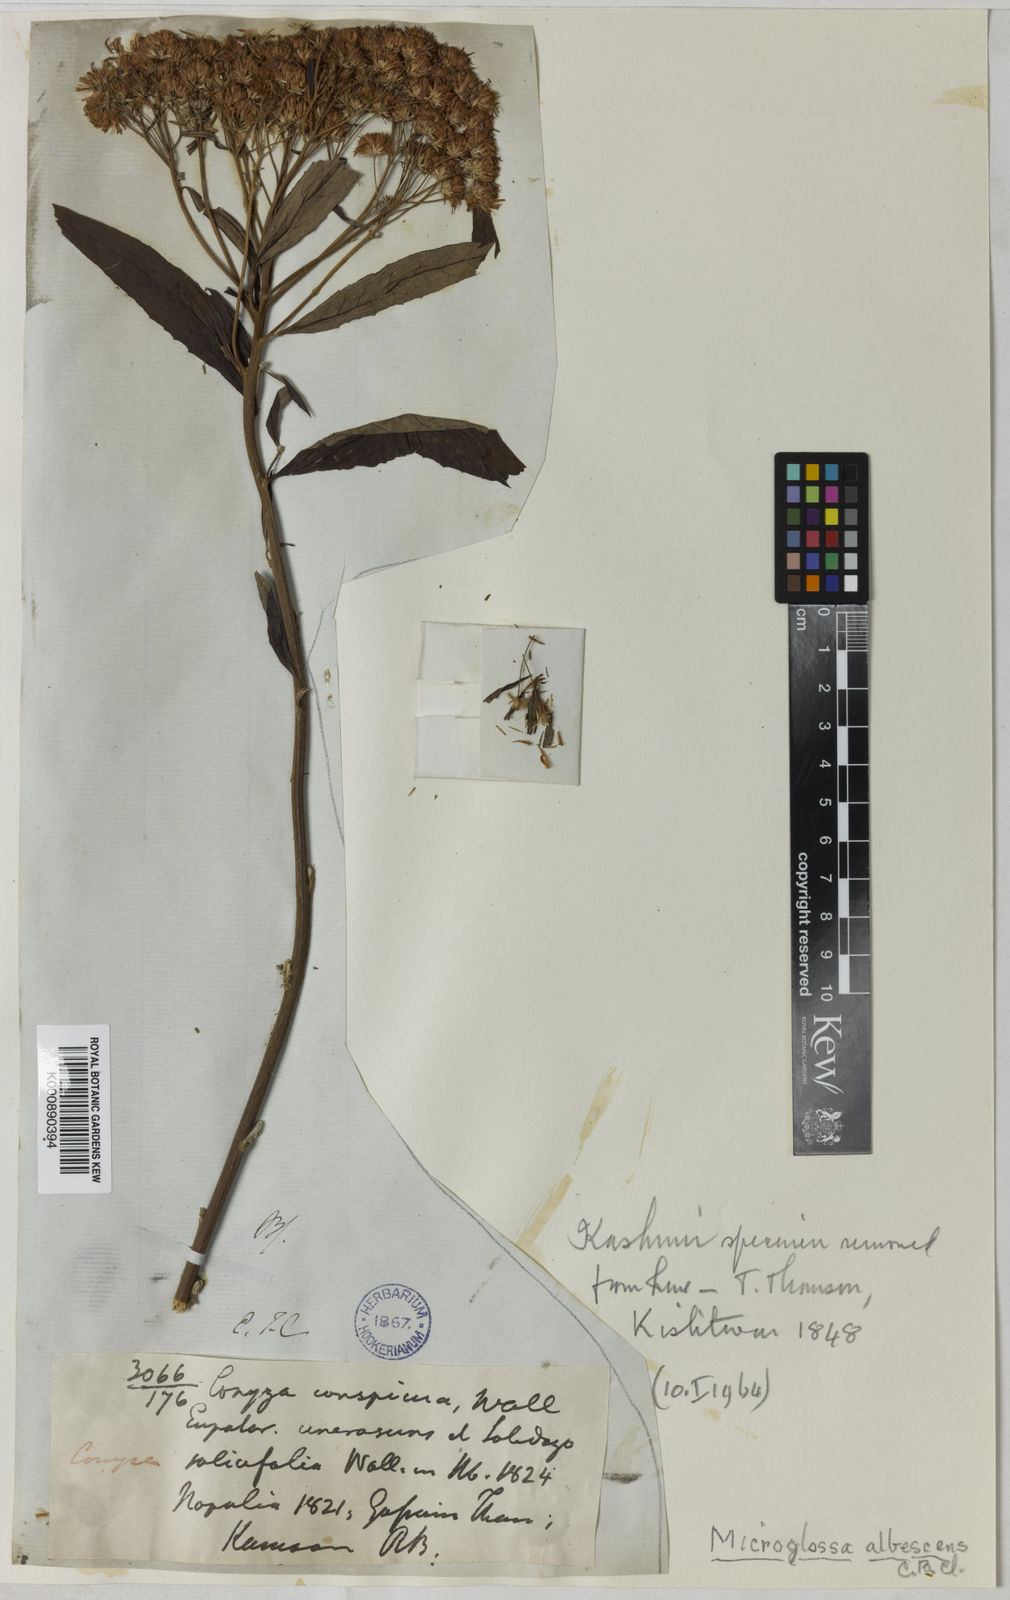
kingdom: Plantae
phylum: Tracheophyta
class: Magnoliopsida
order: Asterales
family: Asteraceae
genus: Sinosidus
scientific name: Sinosidus albescens
